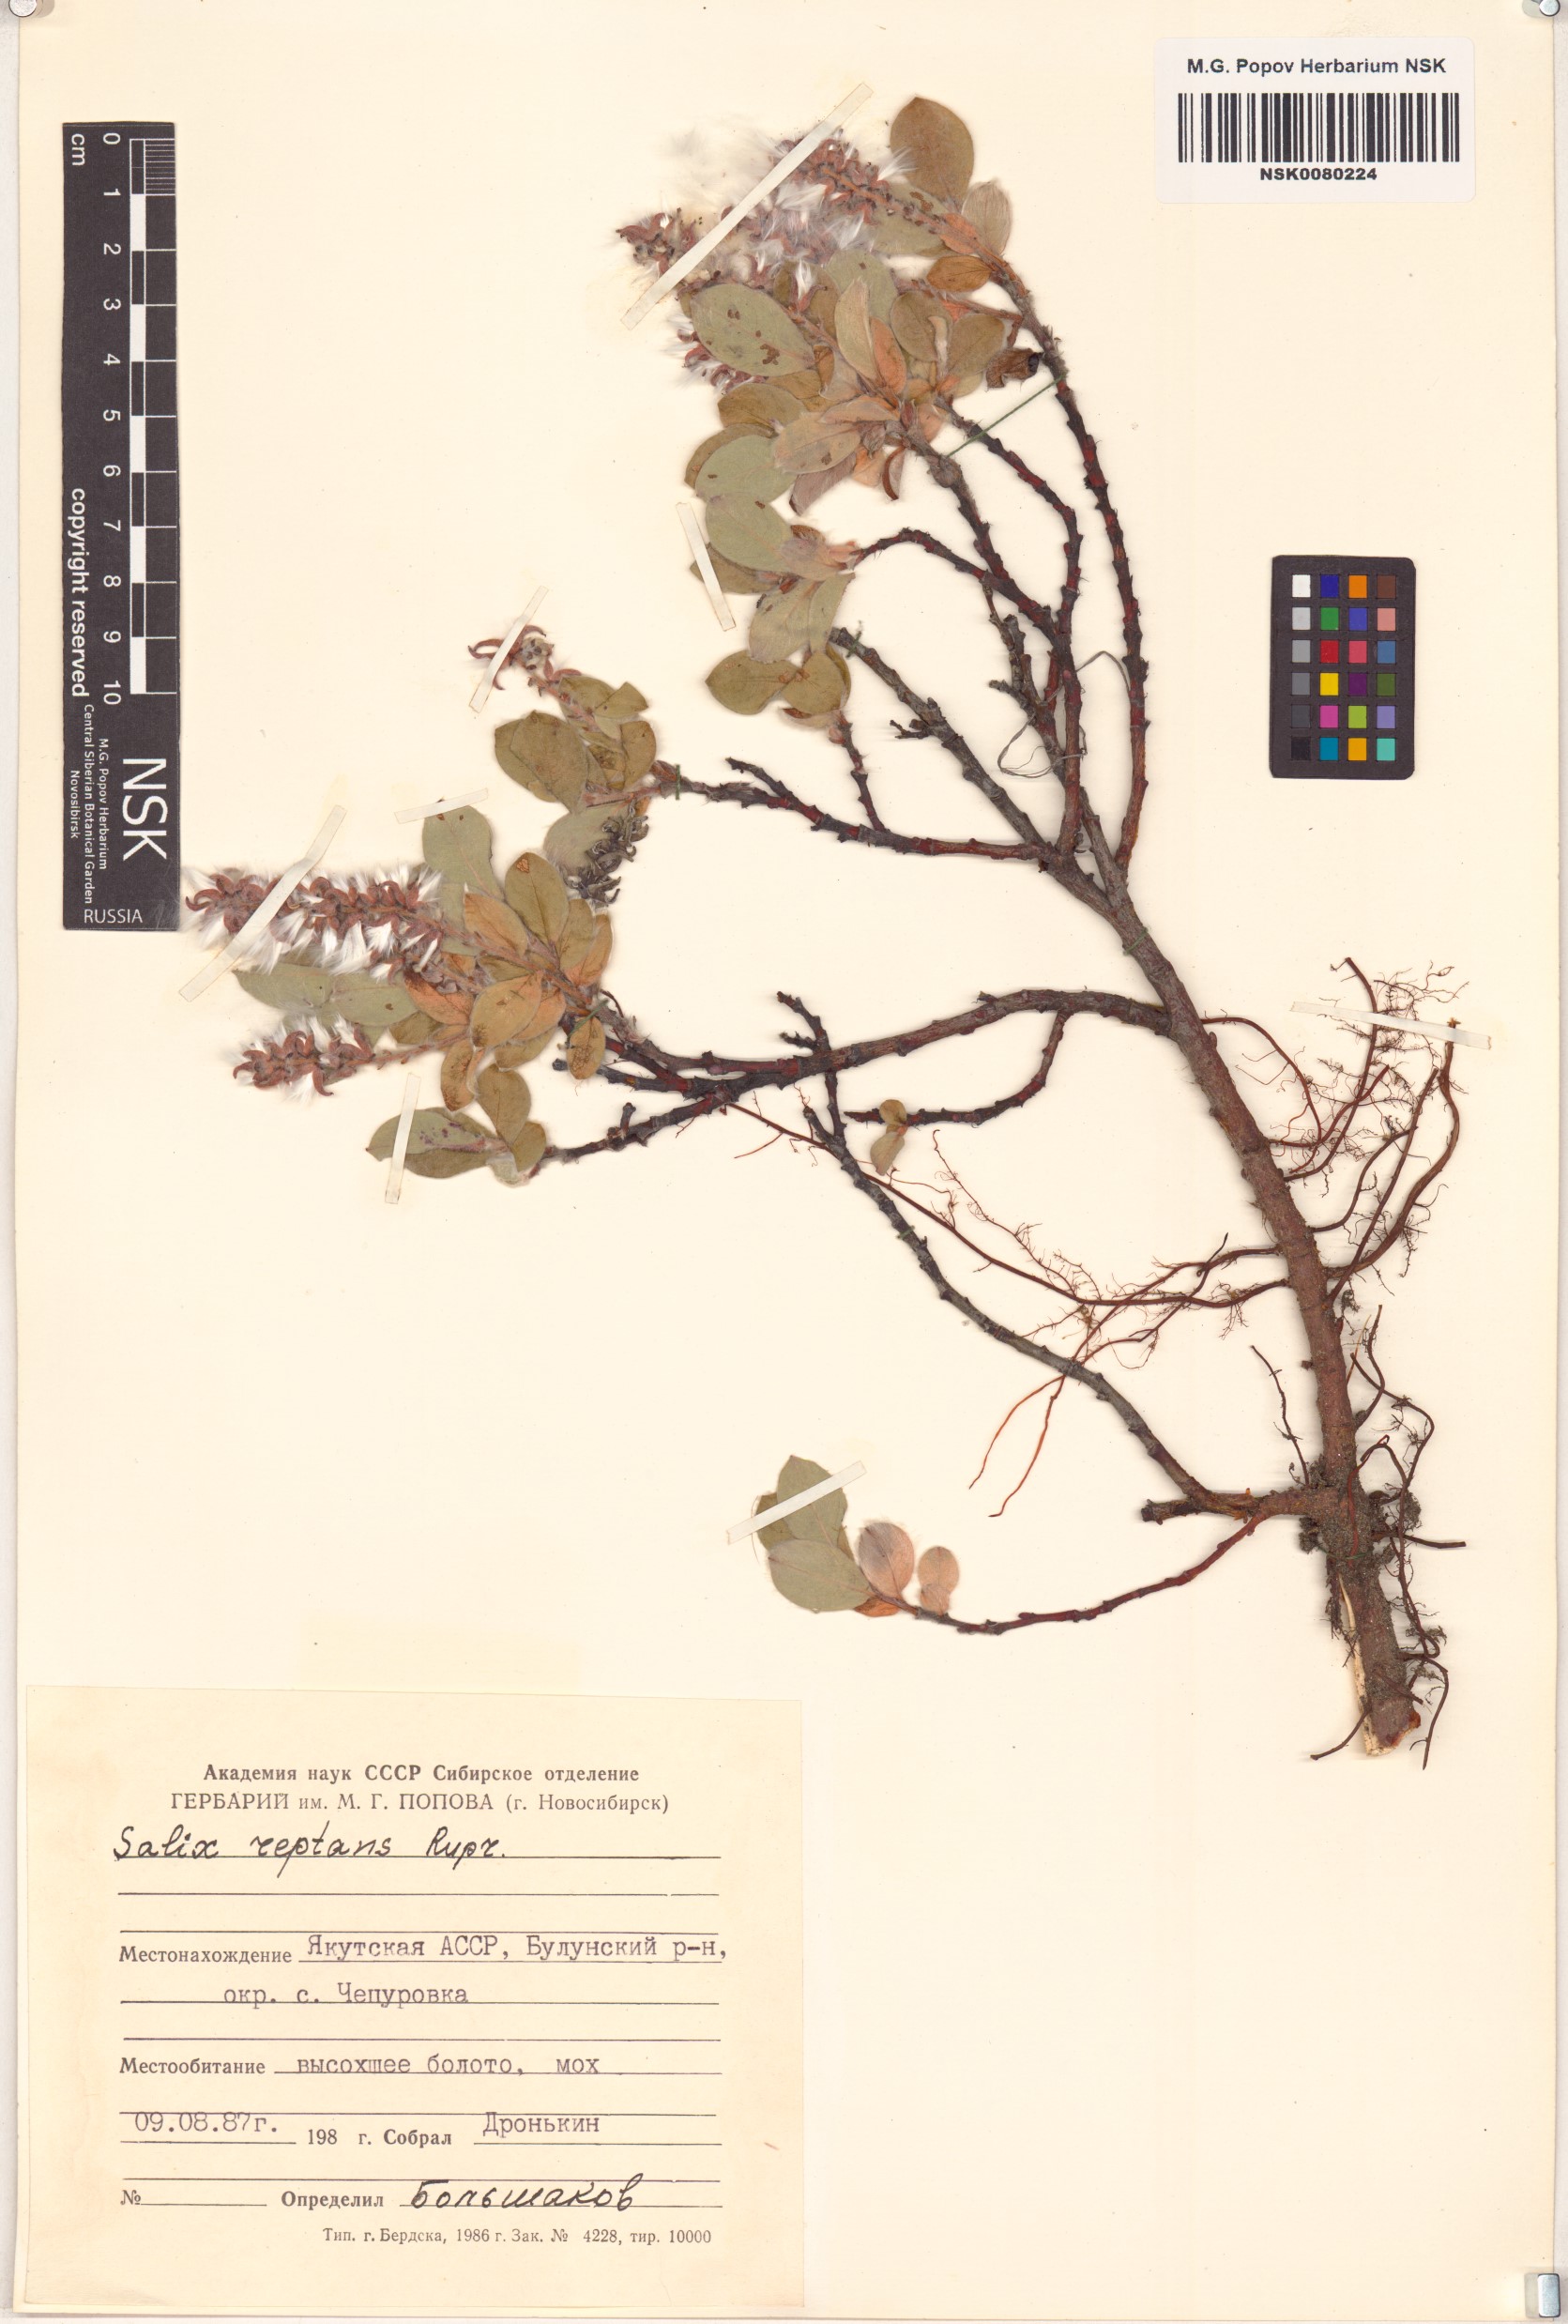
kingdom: Plantae
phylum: Tracheophyta
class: Magnoliopsida
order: Malpighiales
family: Salicaceae
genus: Salix
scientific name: Salix reptans
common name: Arctic creeping willow
